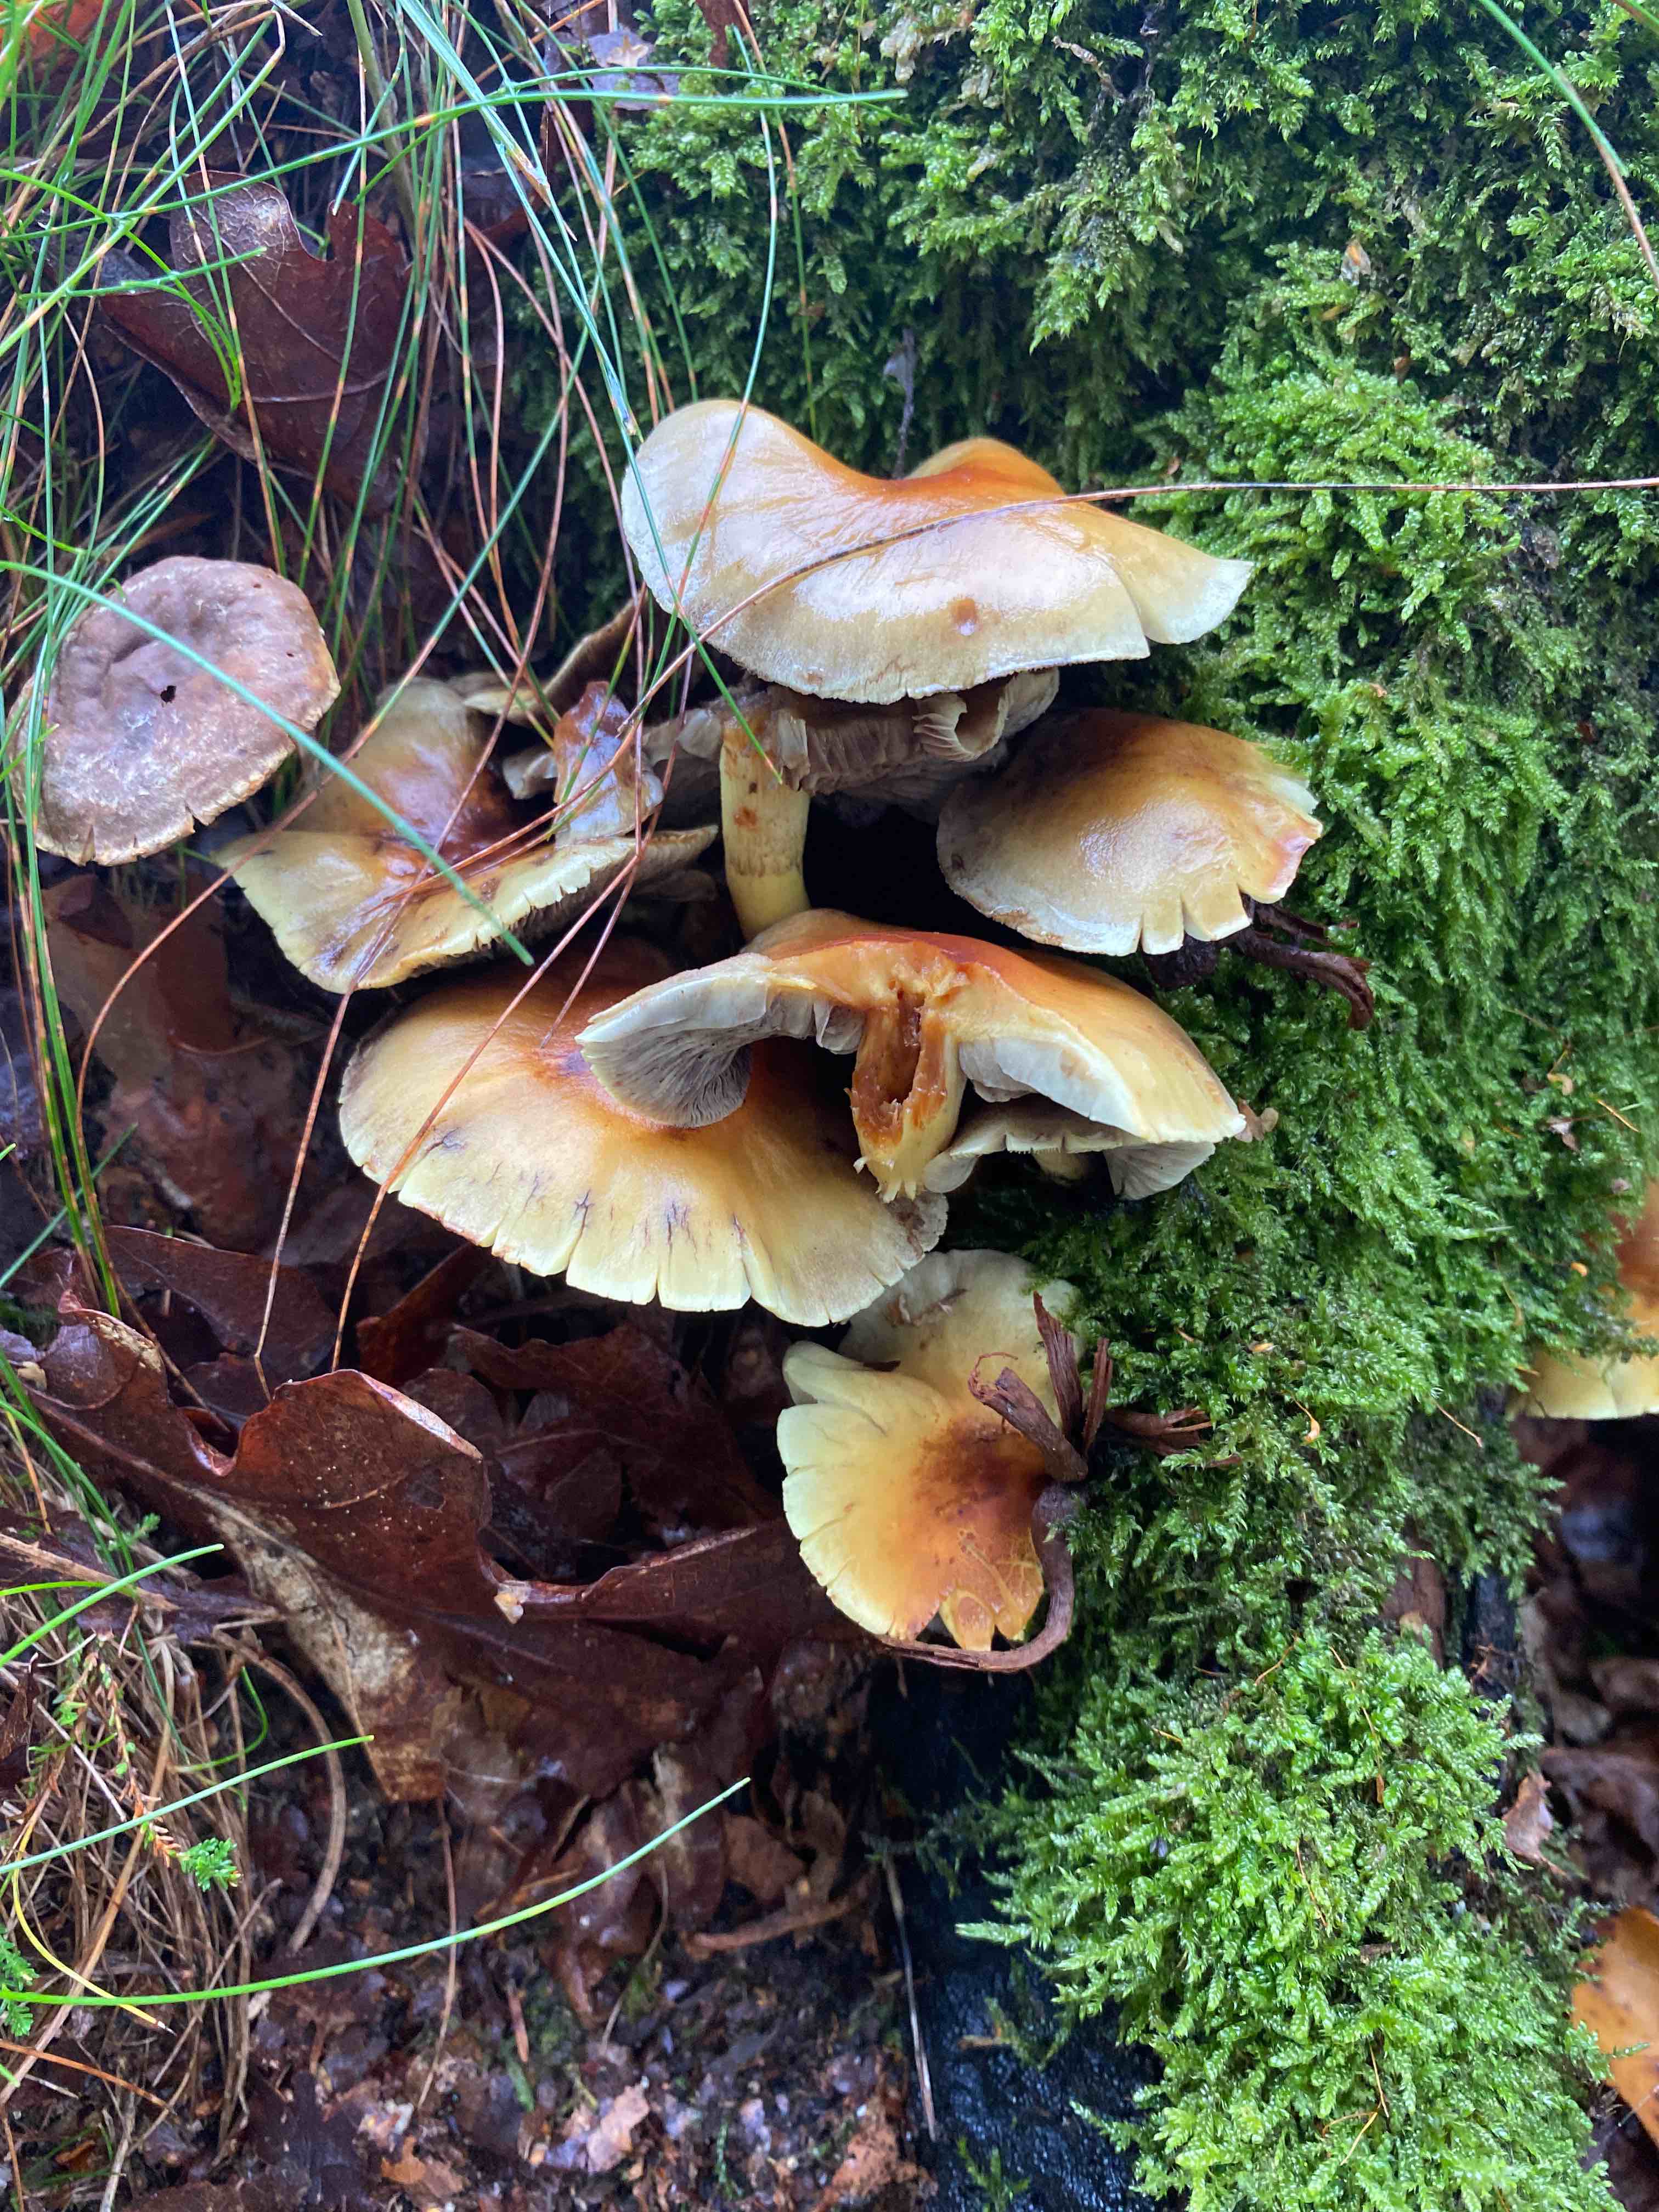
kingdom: Fungi
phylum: Basidiomycota
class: Agaricomycetes
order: Agaricales
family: Strophariaceae
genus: Hypholoma
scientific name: Hypholoma
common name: svovlhat
